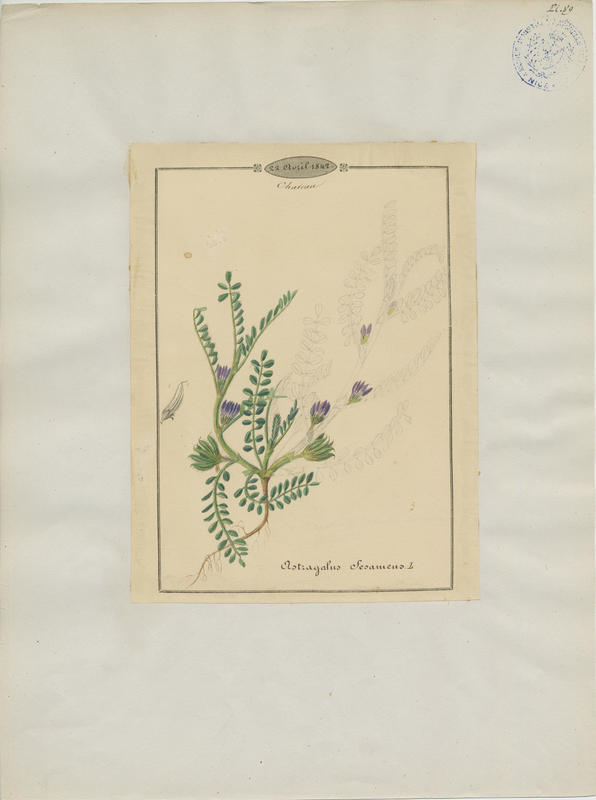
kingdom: Plantae
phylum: Tracheophyta
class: Magnoliopsida
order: Fabales
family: Fabaceae
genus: Astragalus
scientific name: Astragalus sesameus
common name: Purple milk-vetch
